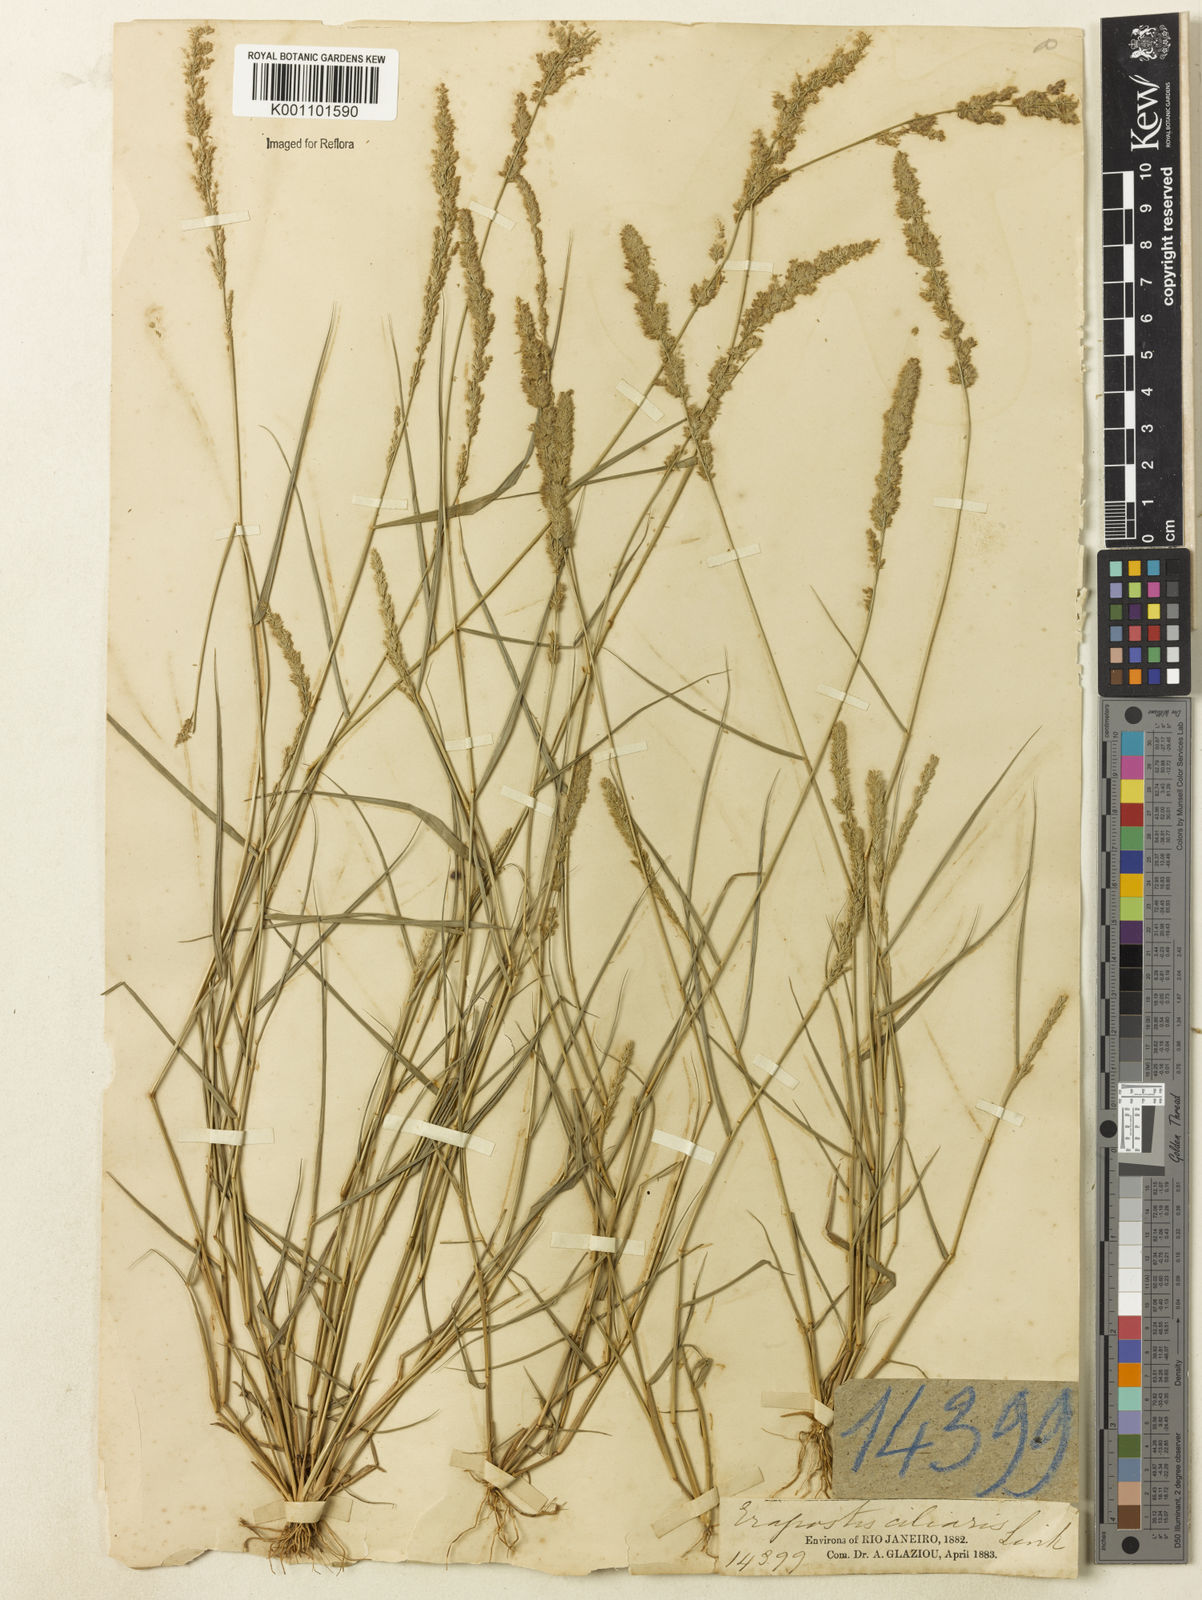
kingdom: Plantae
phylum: Tracheophyta
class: Liliopsida
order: Poales
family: Poaceae
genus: Eragrostis
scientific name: Eragrostis ciliaris
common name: Gophertail lovegrass
